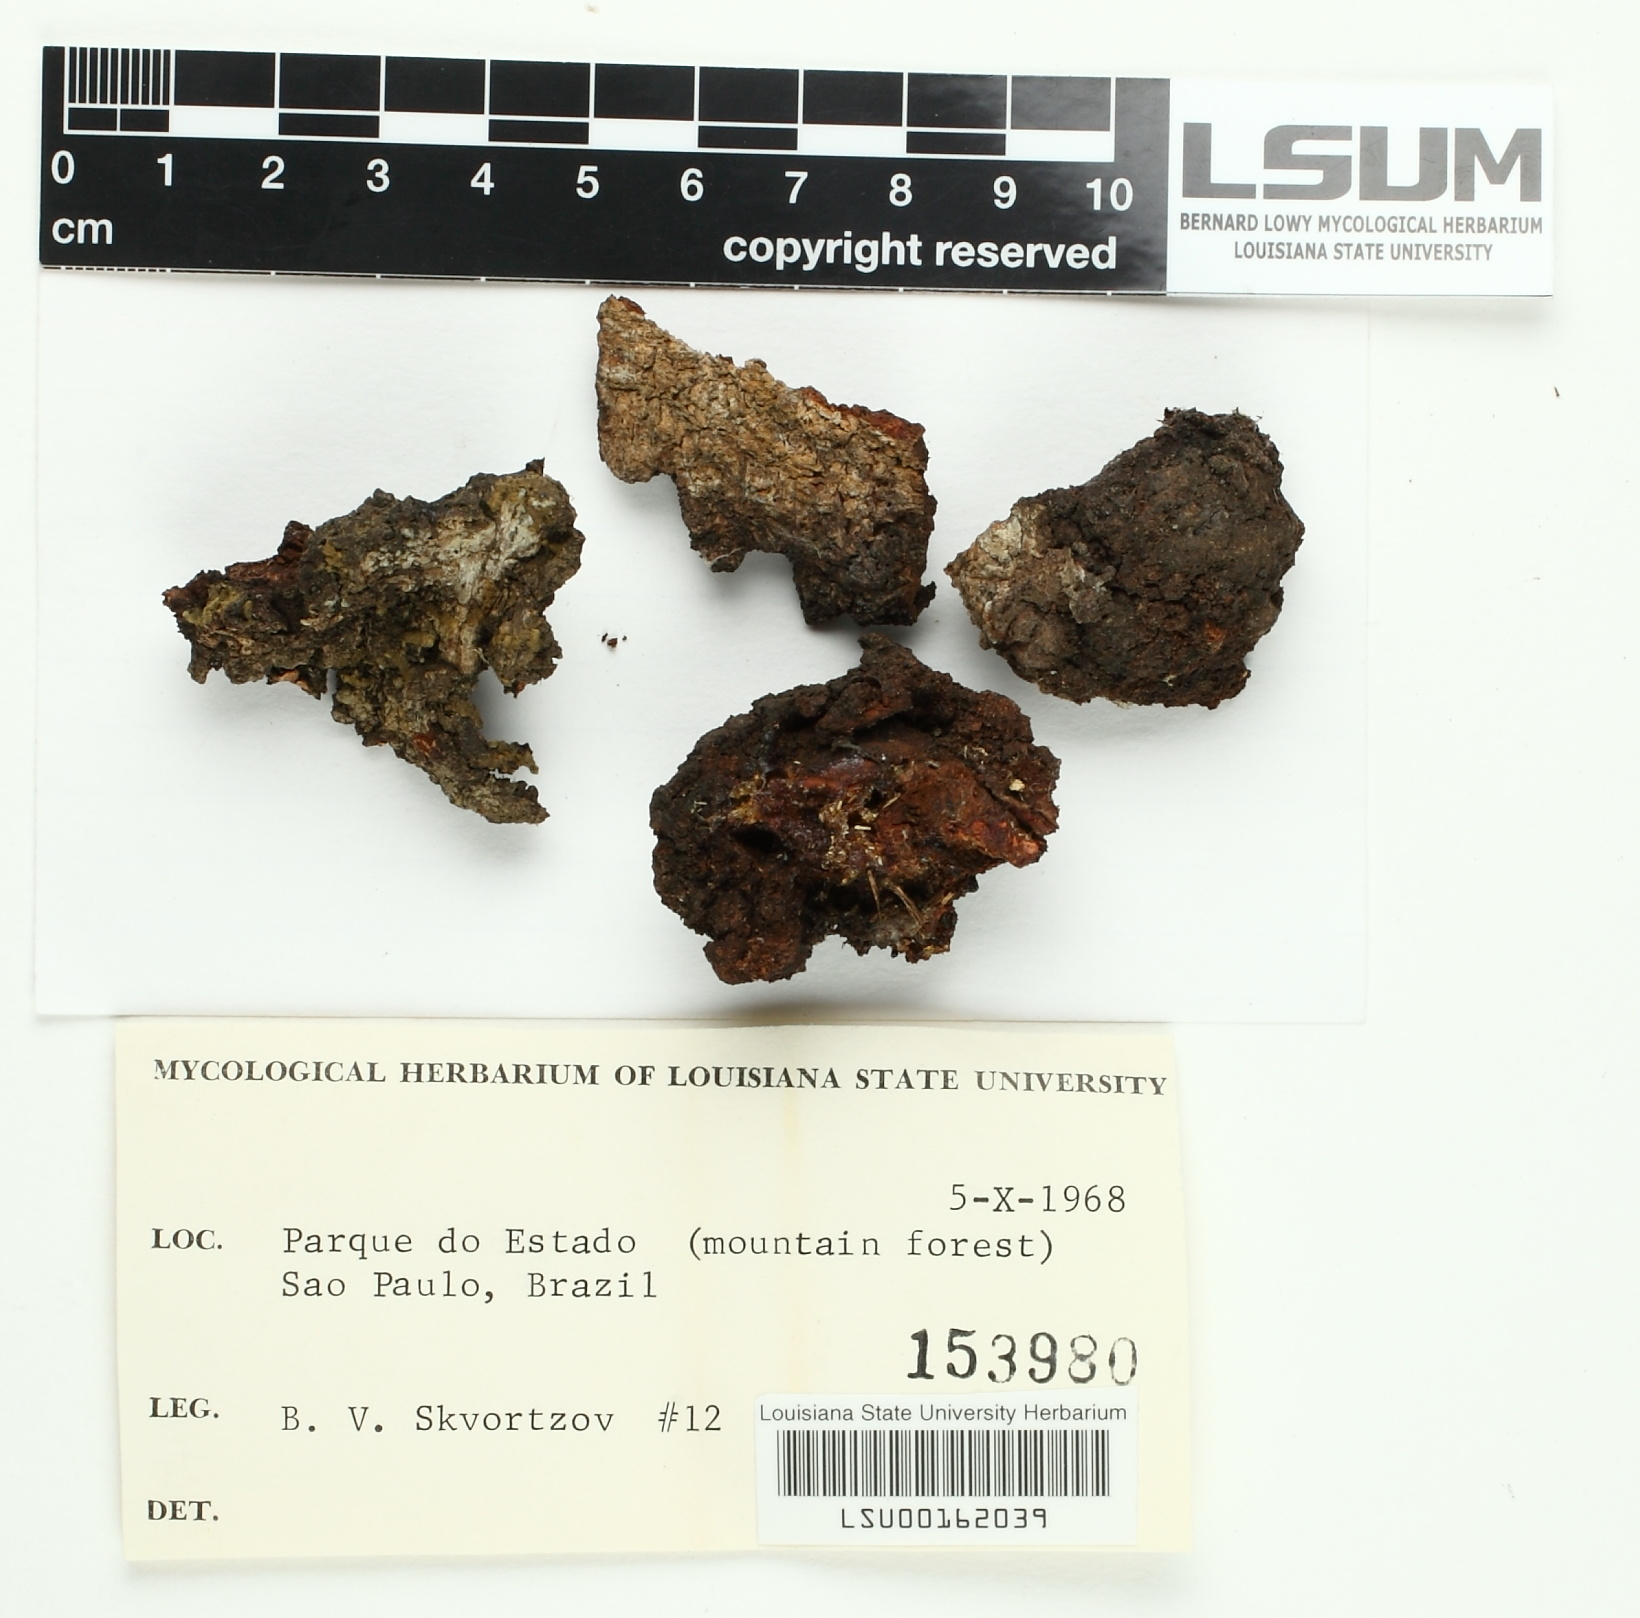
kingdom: Fungi
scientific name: Fungi
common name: Fungi
